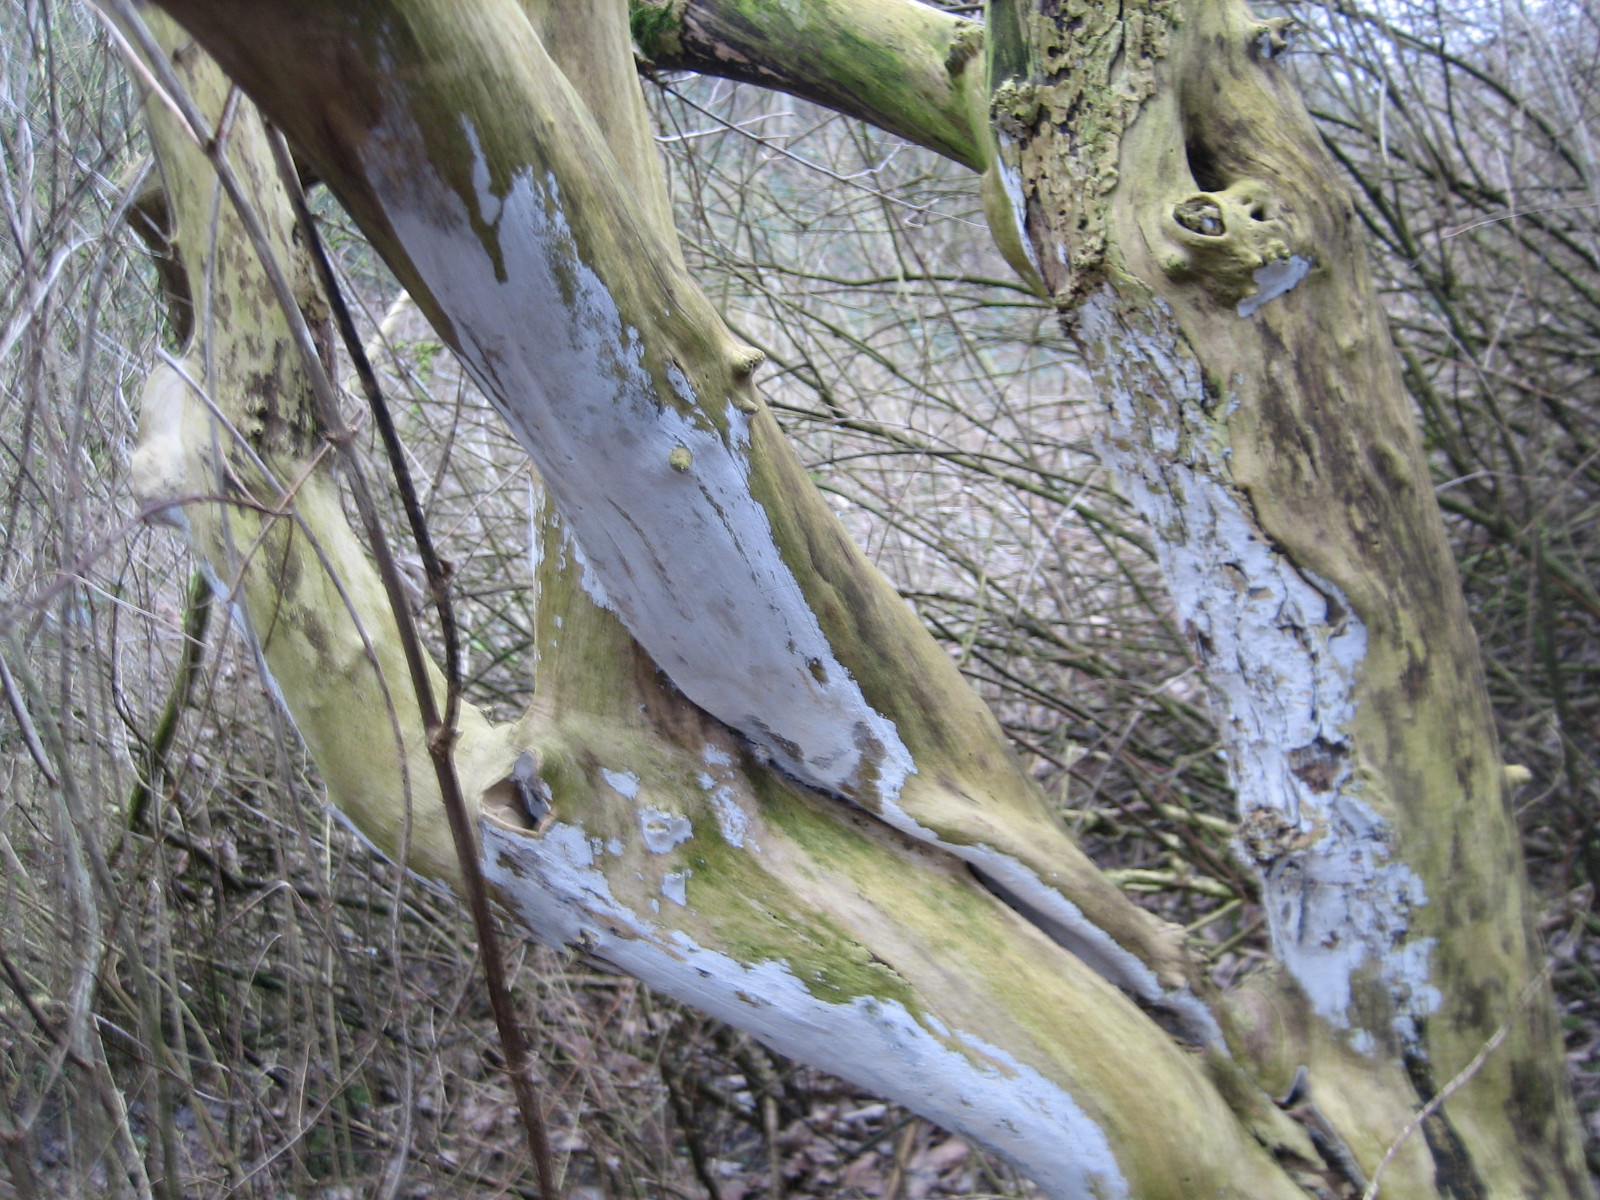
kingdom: Fungi
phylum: Basidiomycota
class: Agaricomycetes
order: Corticiales
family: Corticiaceae
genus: Lyomyces
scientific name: Lyomyces sambuci
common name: almindelig hyldehinde
